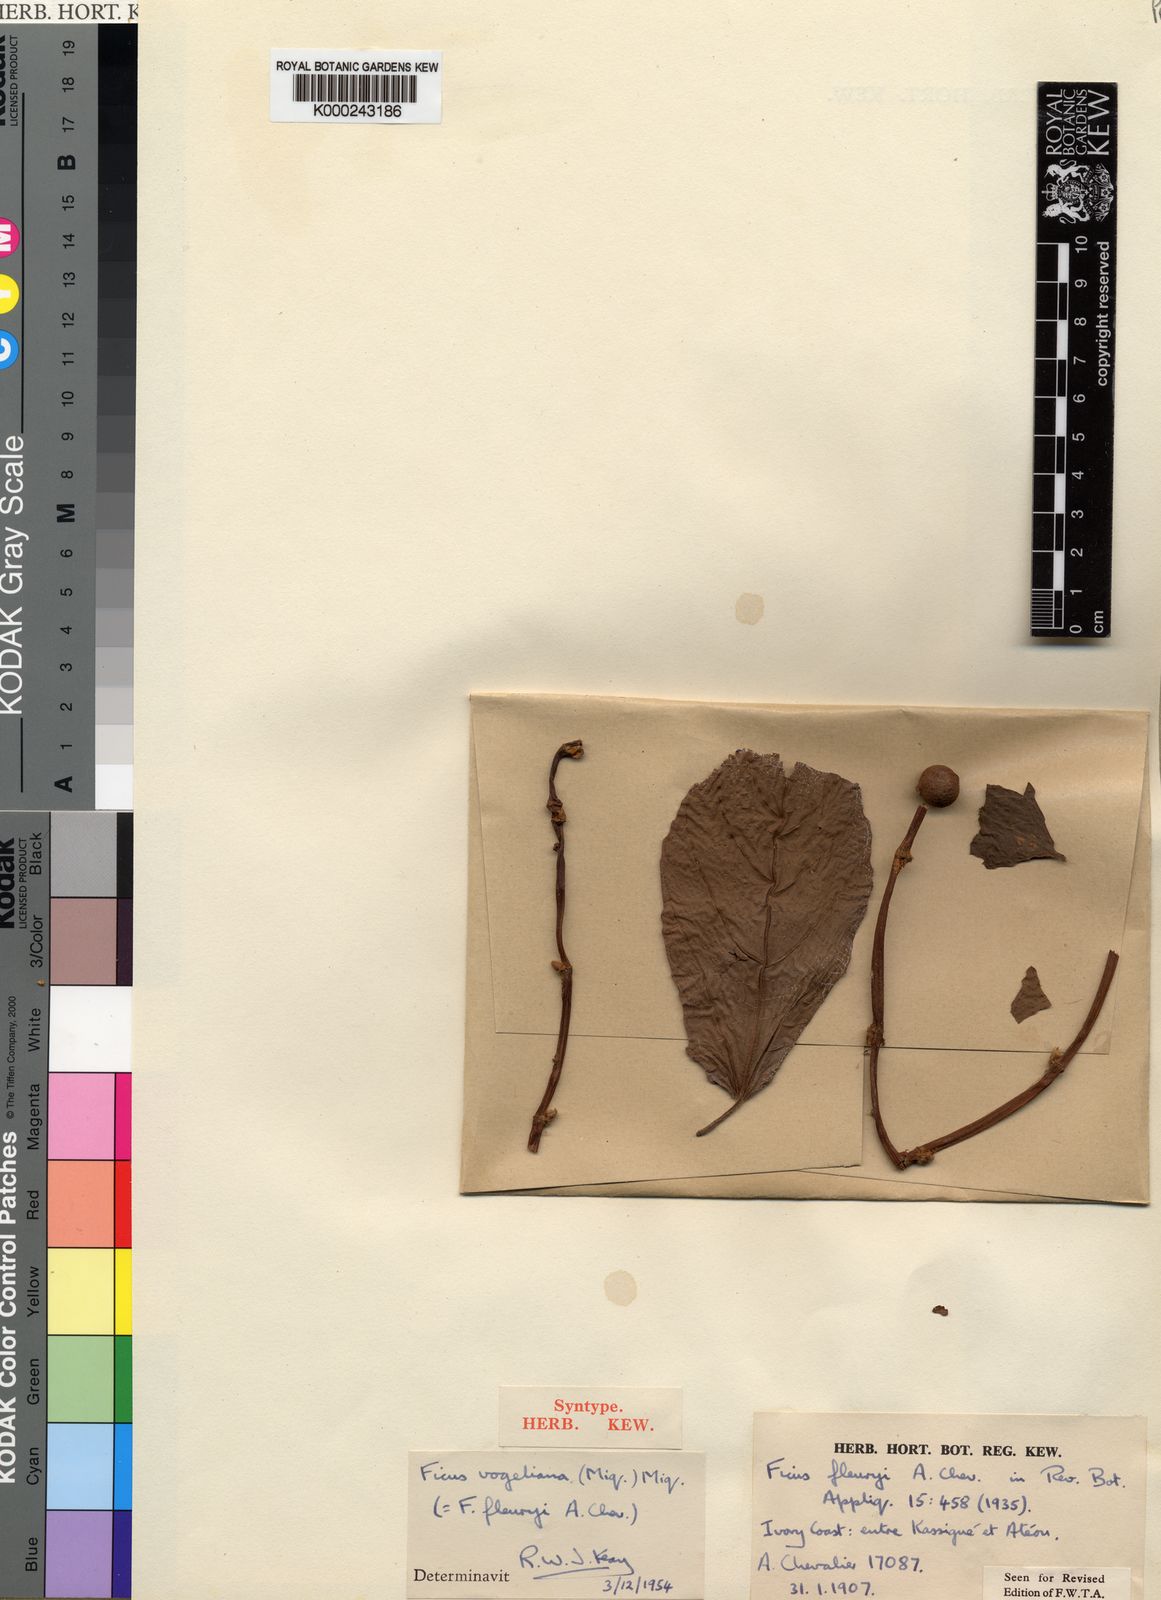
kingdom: Plantae
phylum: Tracheophyta
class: Magnoliopsida
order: Rosales
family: Moraceae
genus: Ficus
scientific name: Ficus vogeliana
